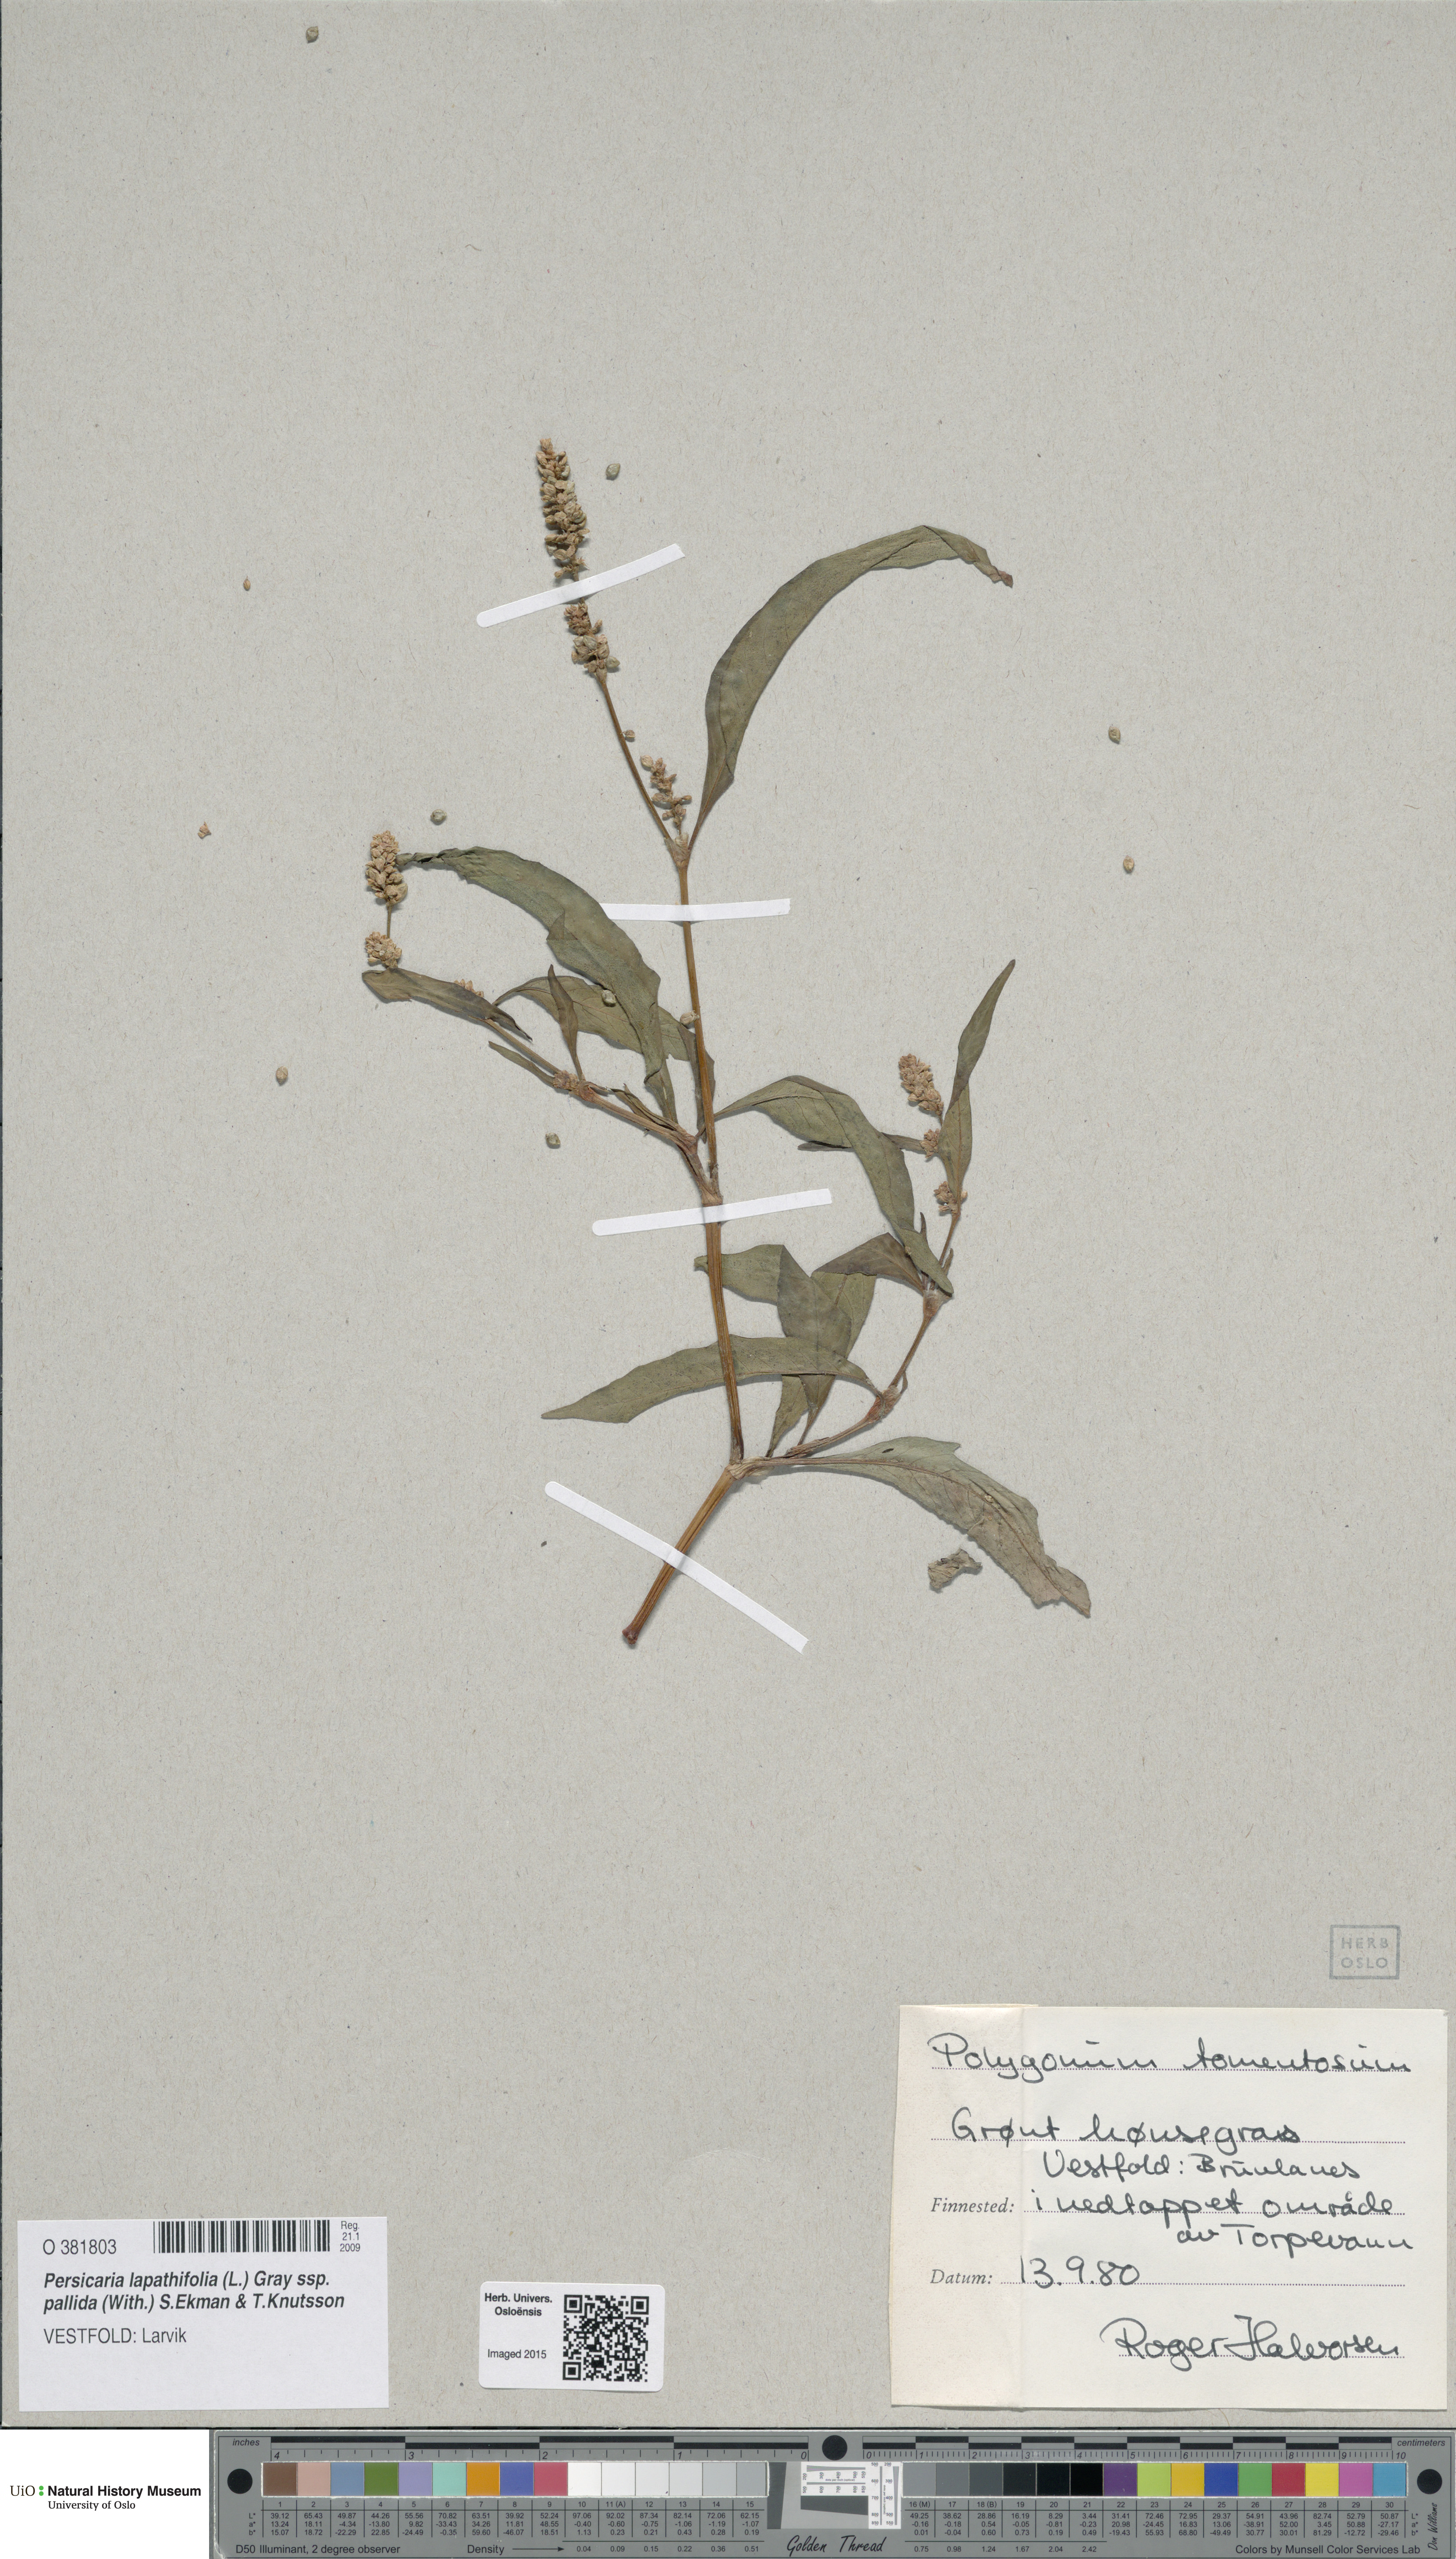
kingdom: Plantae
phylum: Tracheophyta
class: Magnoliopsida
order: Caryophyllales
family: Polygonaceae
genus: Persicaria
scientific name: Persicaria lapathifolia
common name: Curlytop knotweed
